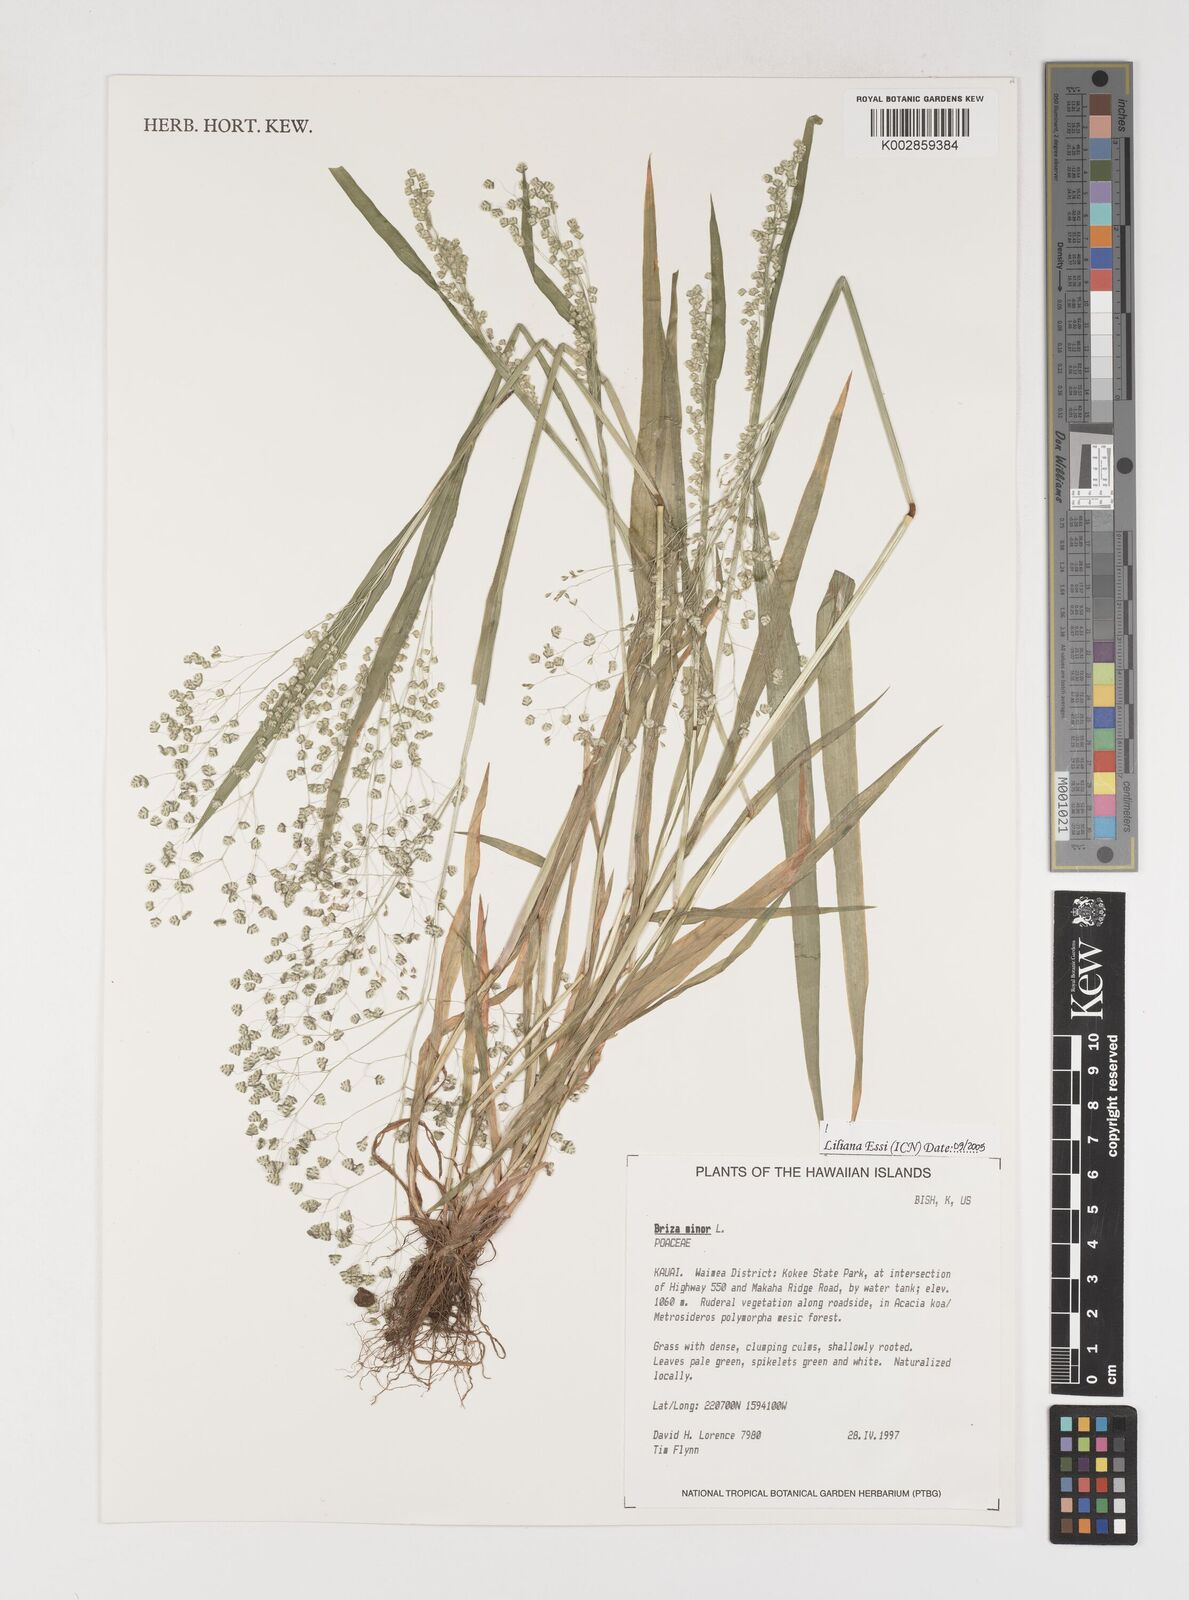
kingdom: Plantae
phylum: Tracheophyta
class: Liliopsida
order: Poales
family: Poaceae
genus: Briza
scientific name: Briza minor
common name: Lesser quaking-grass
